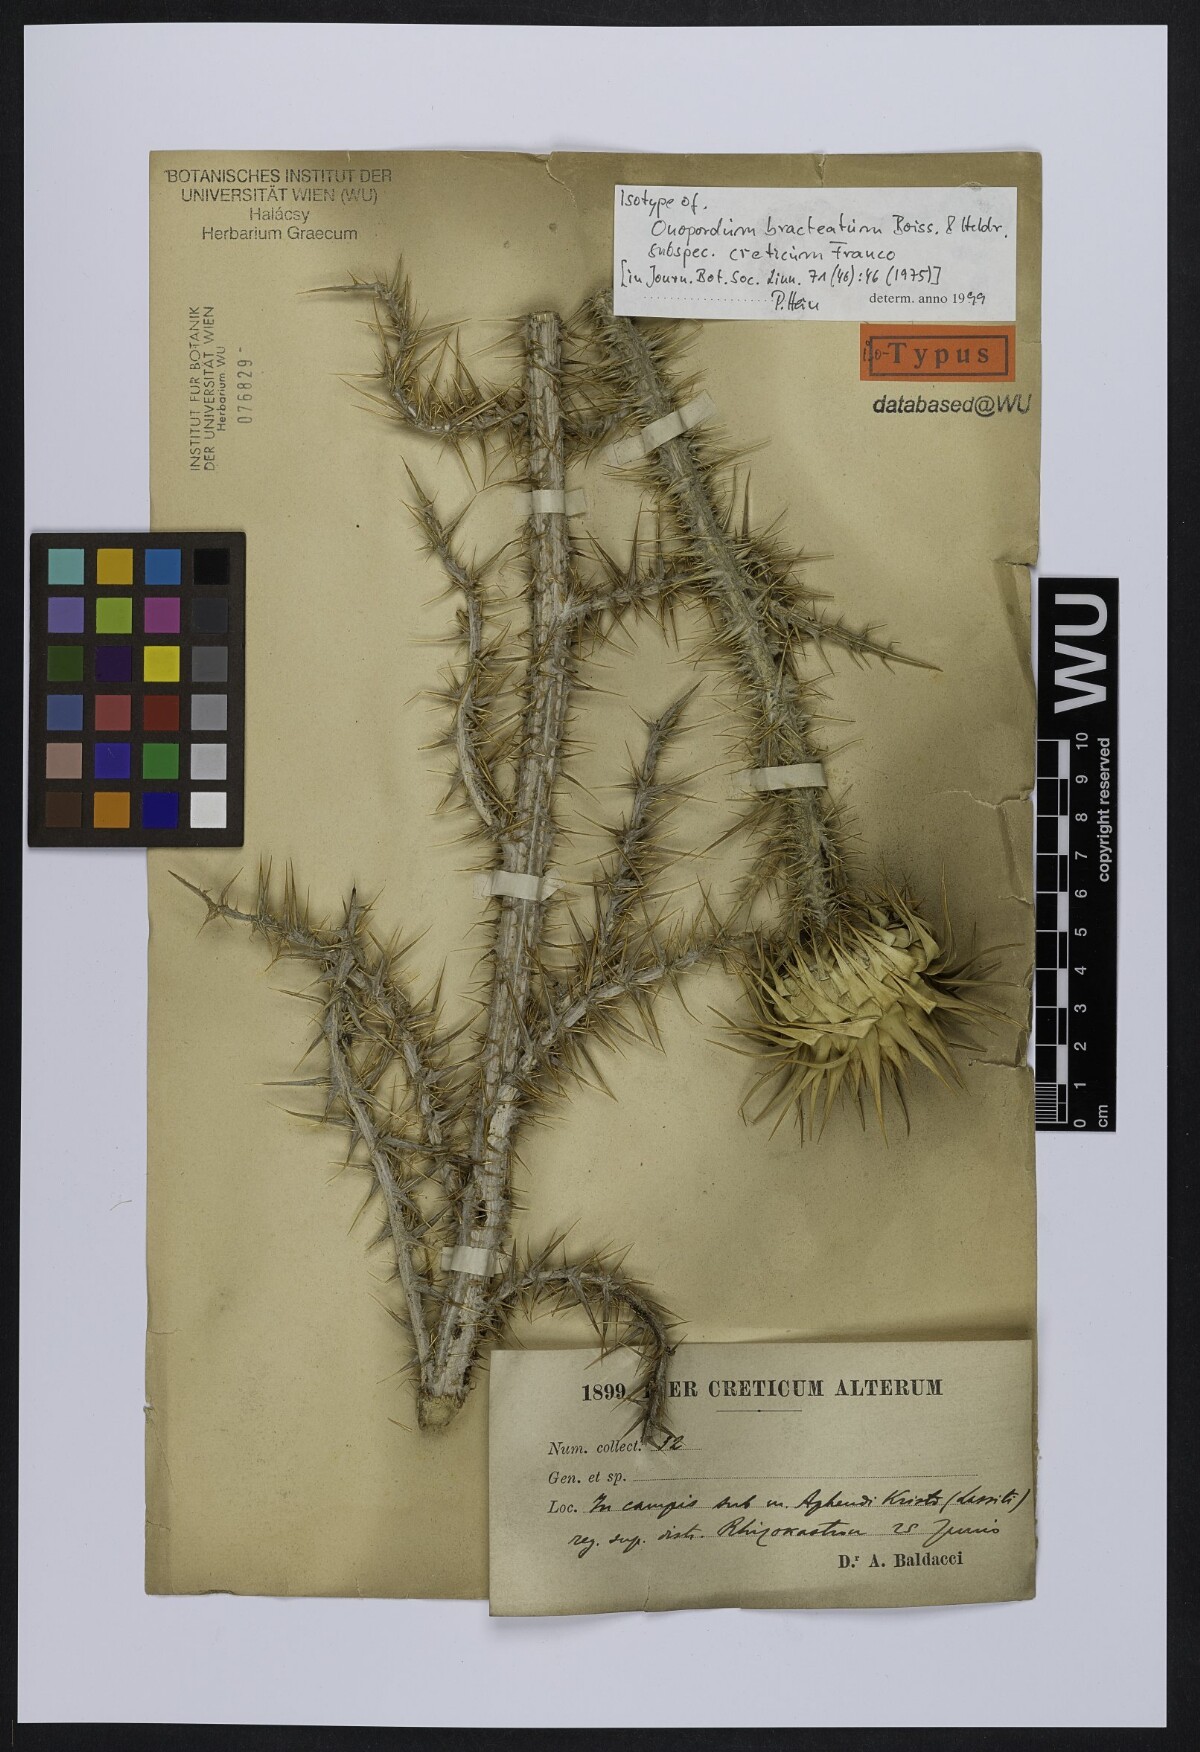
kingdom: Plantae
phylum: Tracheophyta
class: Magnoliopsida
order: Asterales
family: Asteraceae
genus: Onopordum
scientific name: Onopordum bracteatum
